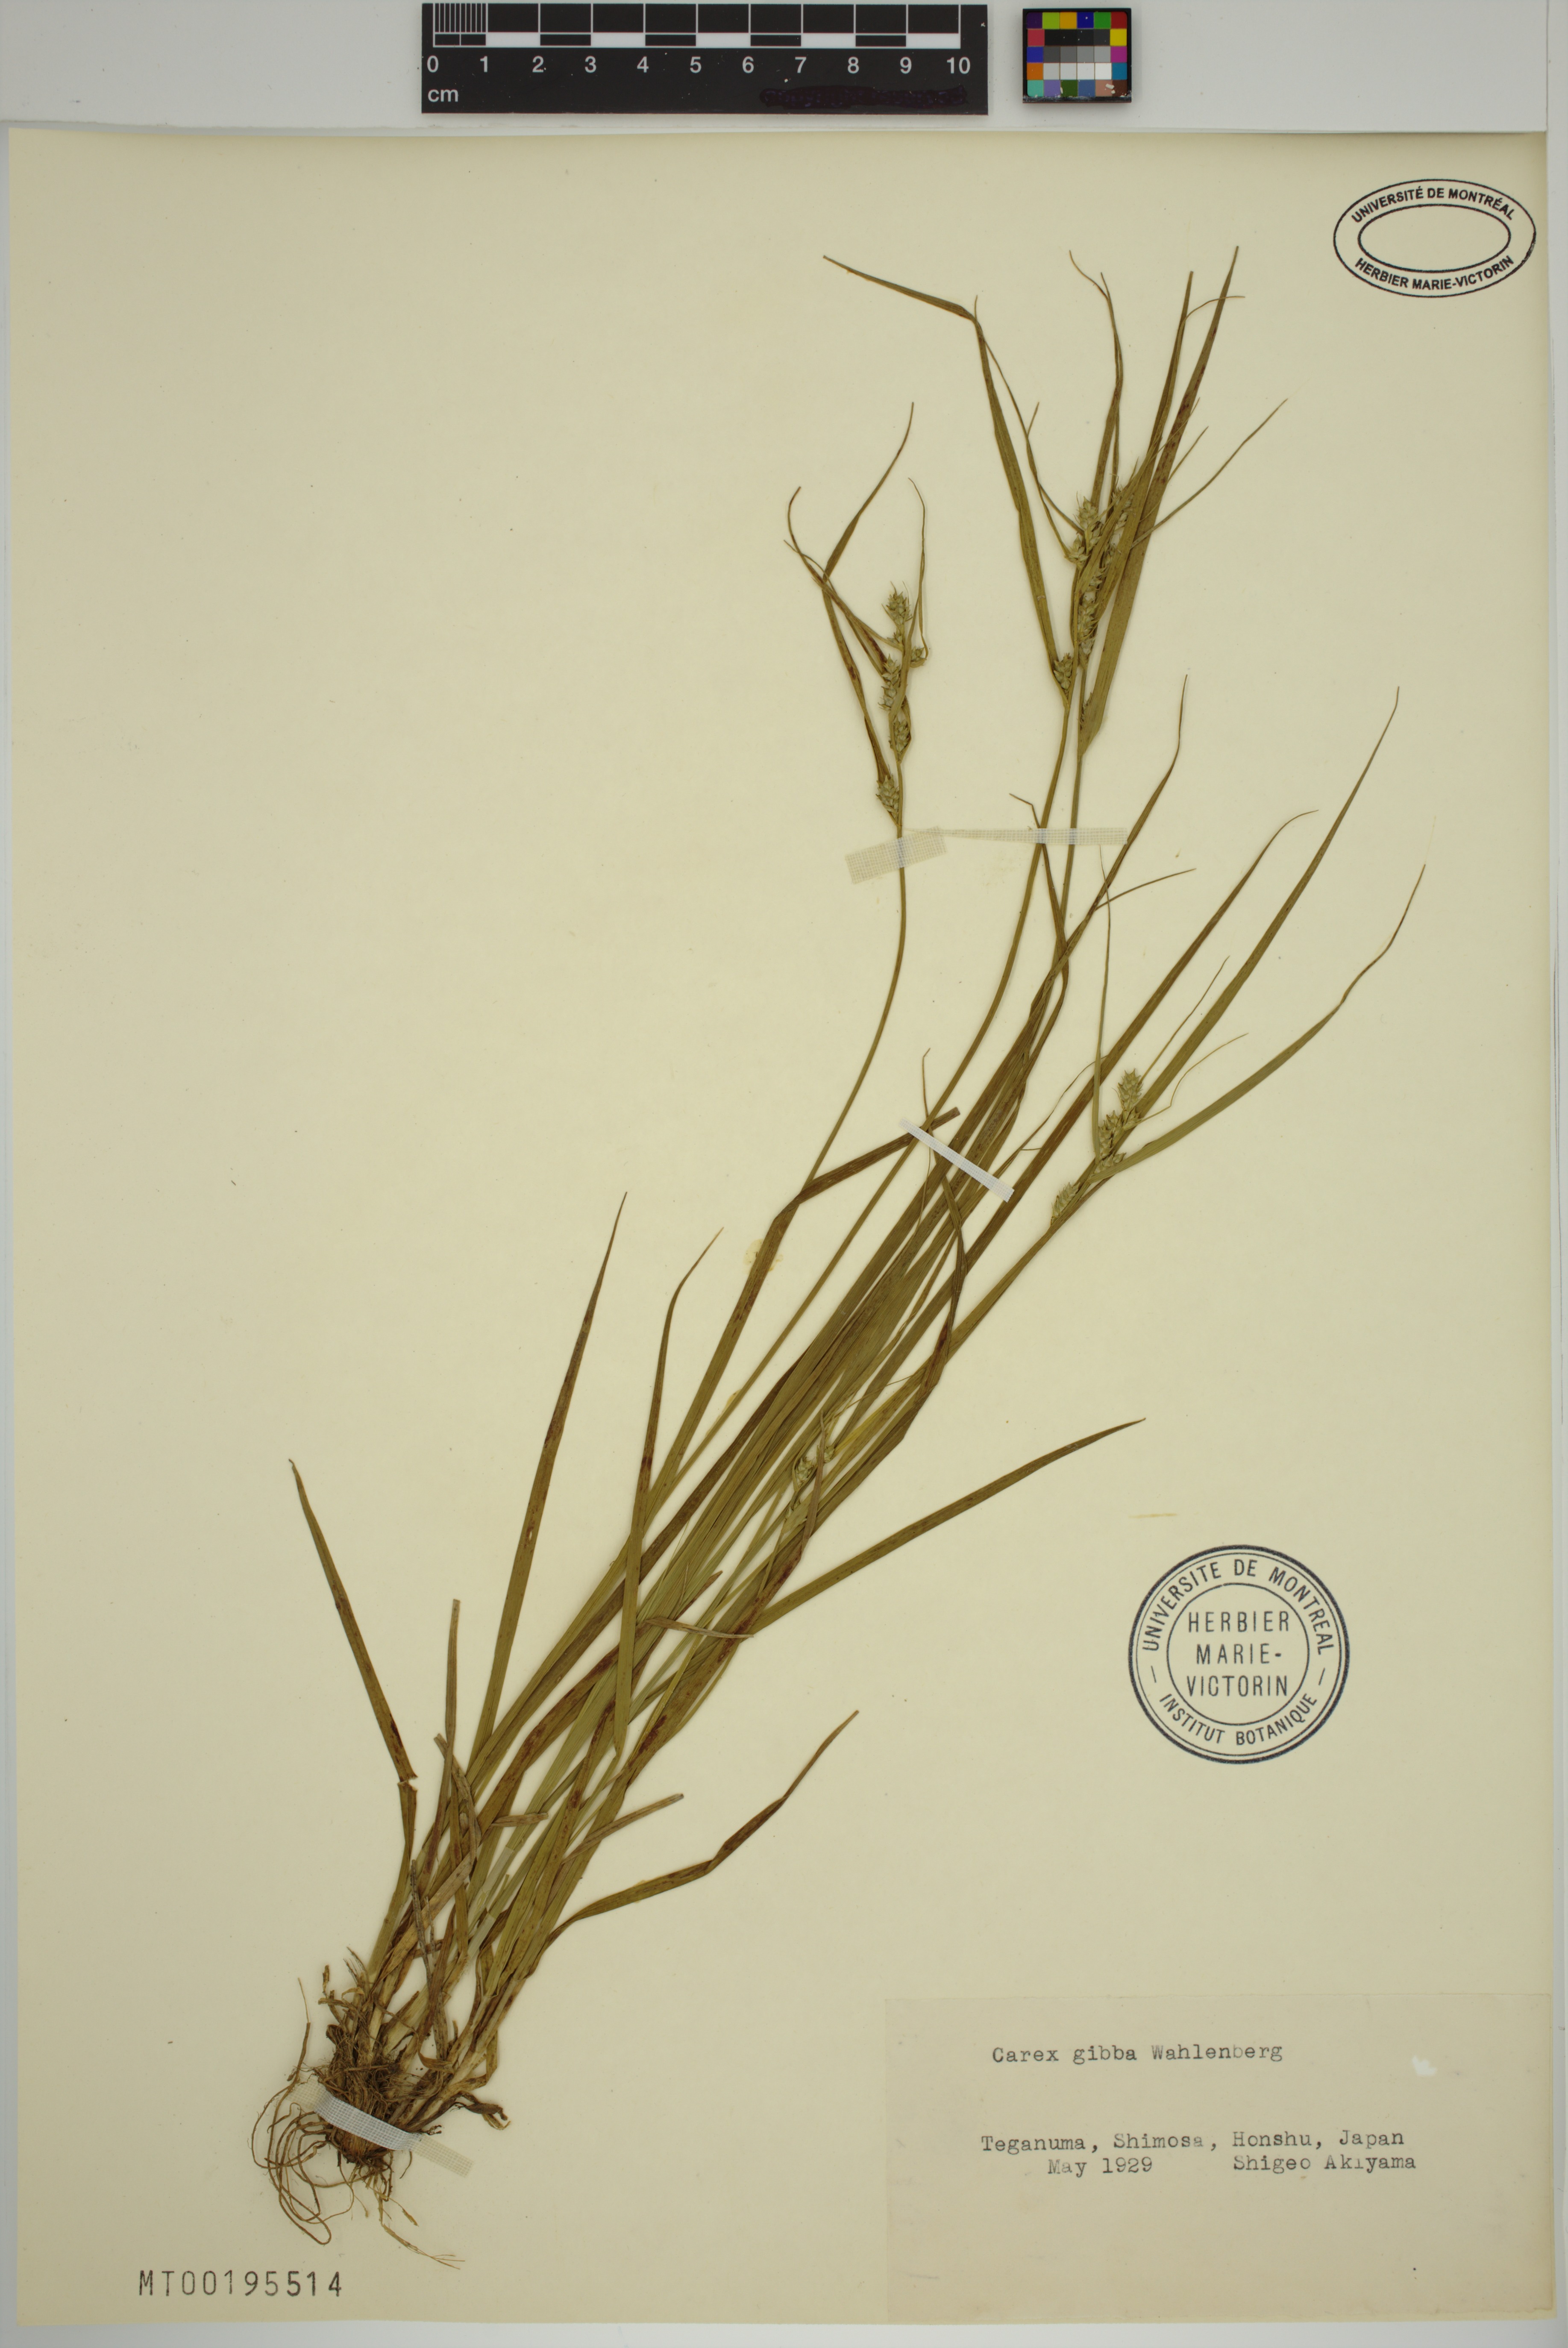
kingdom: Plantae
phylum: Tracheophyta
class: Liliopsida
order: Poales
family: Cyperaceae
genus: Carex
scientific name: Carex gibba
